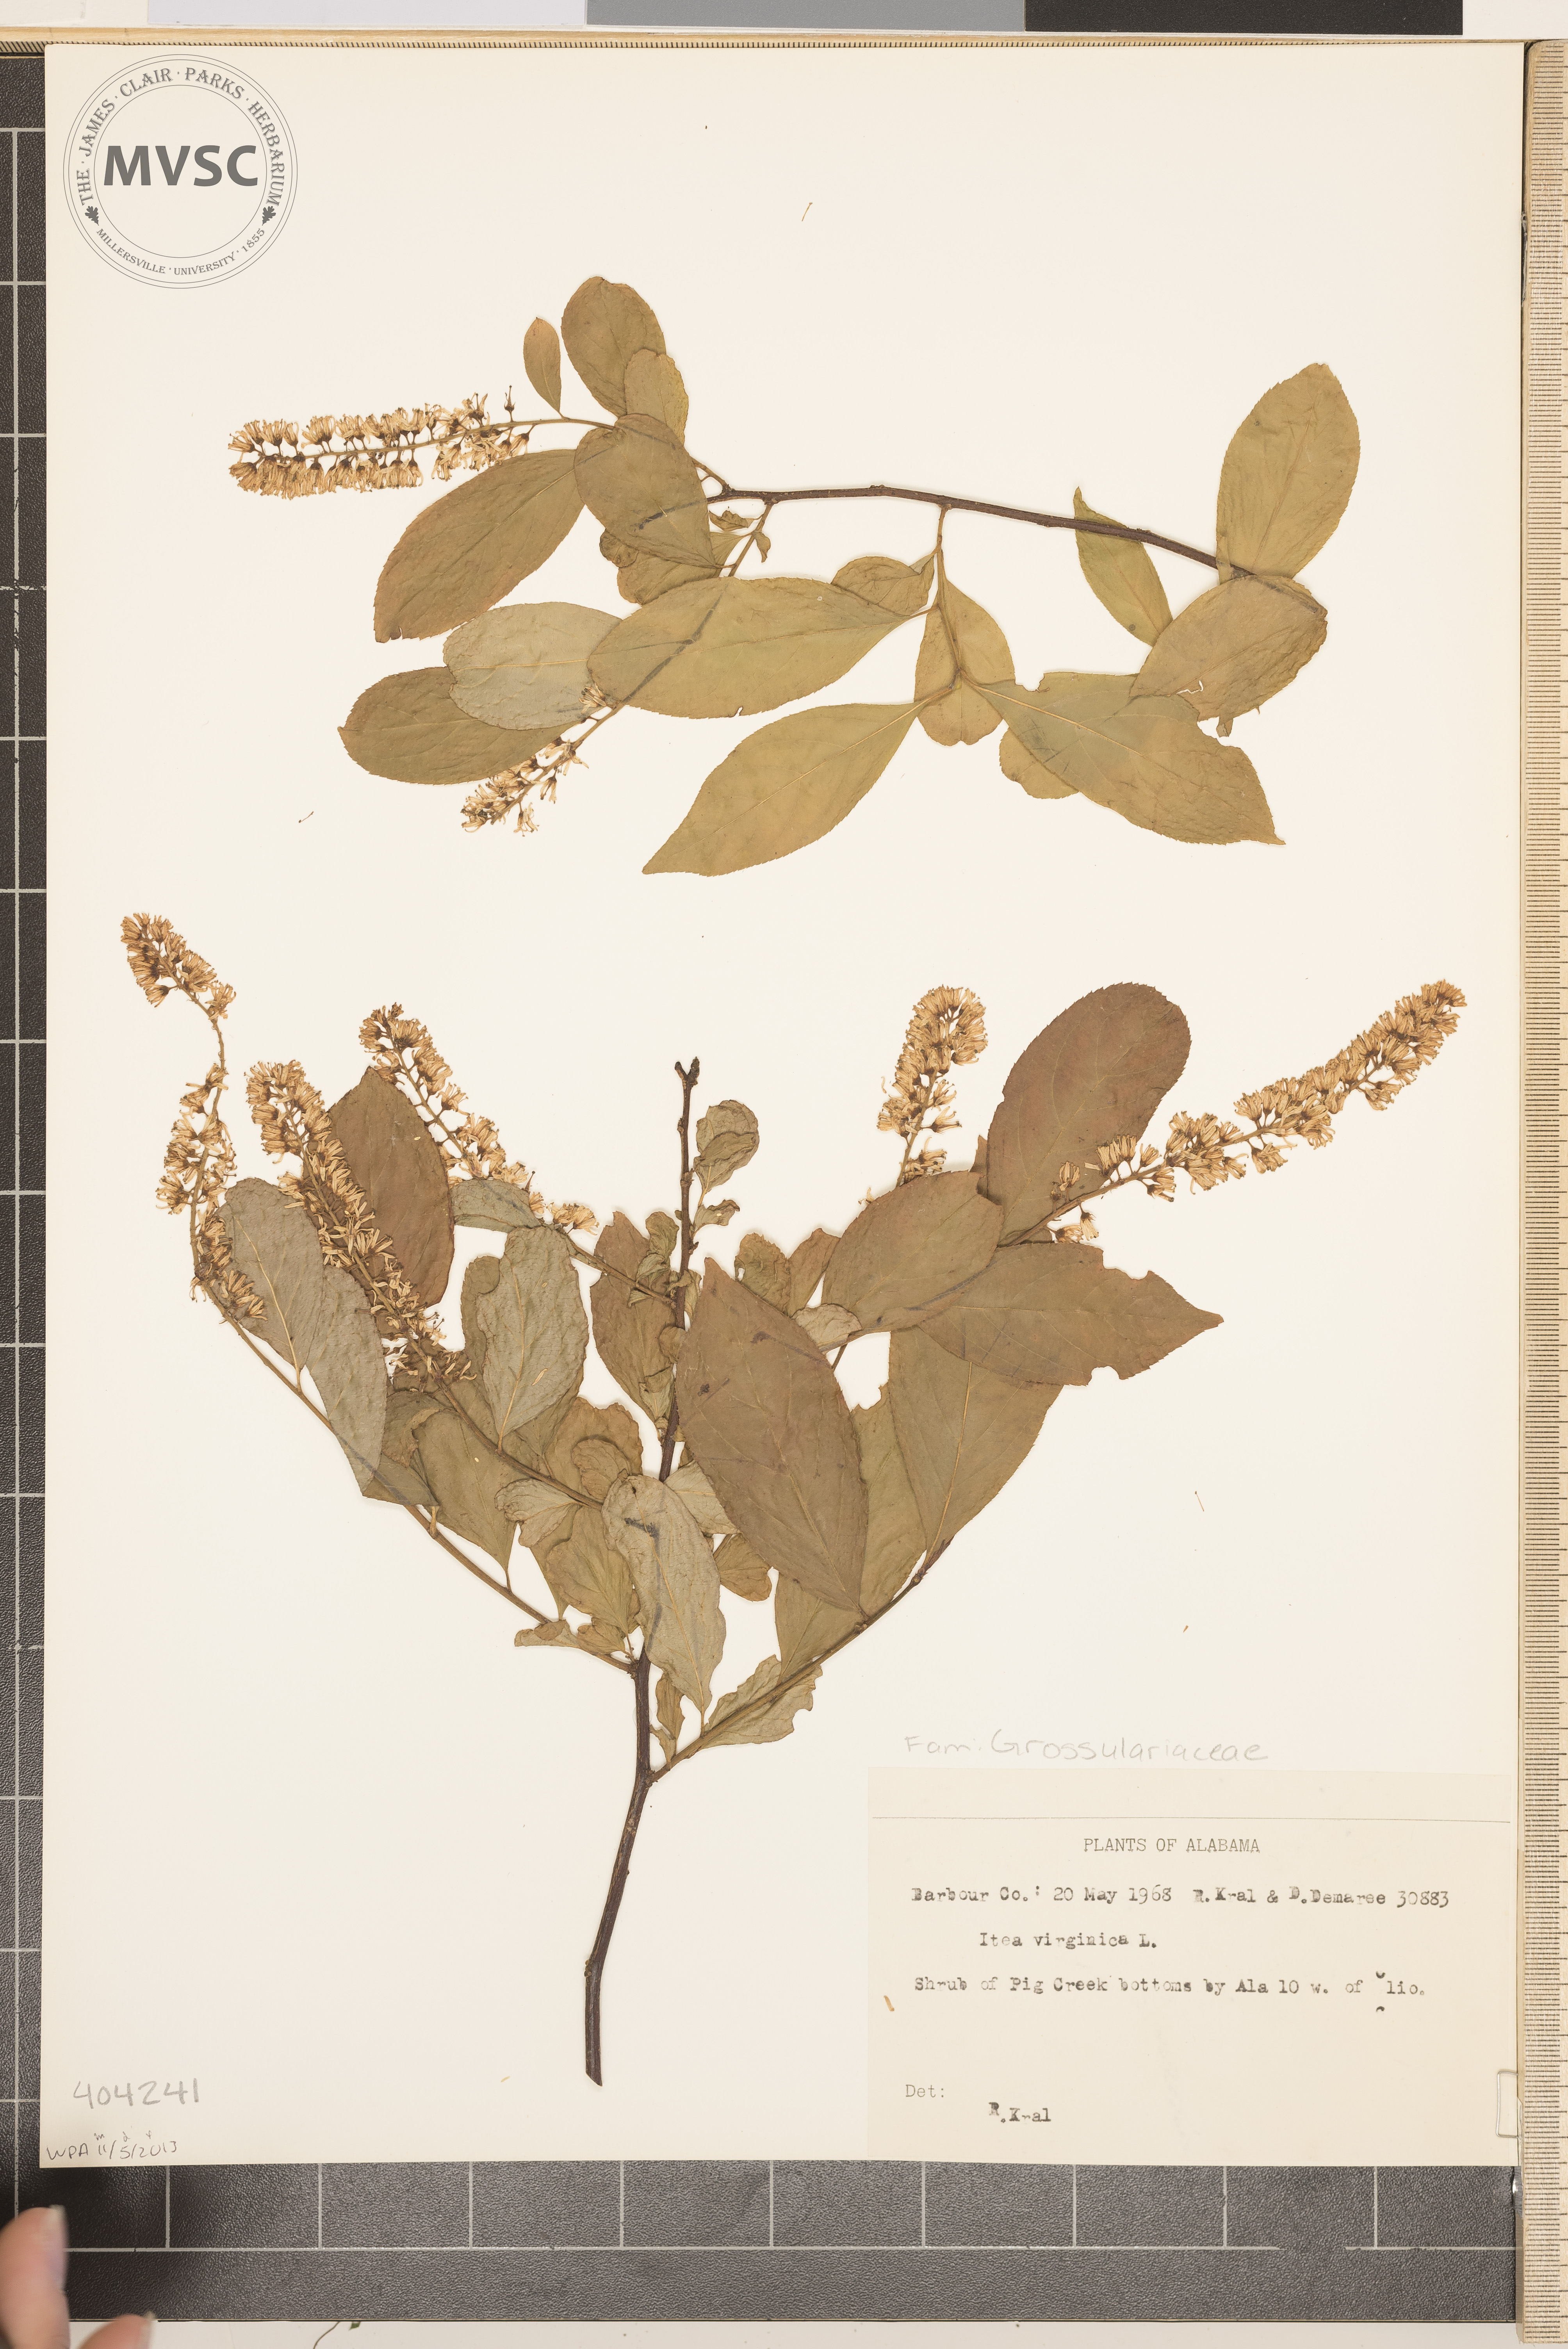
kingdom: Plantae
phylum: Tracheophyta
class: Magnoliopsida
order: Saxifragales
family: Iteaceae
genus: Itea
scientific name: Itea virginica
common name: Sweetspire
